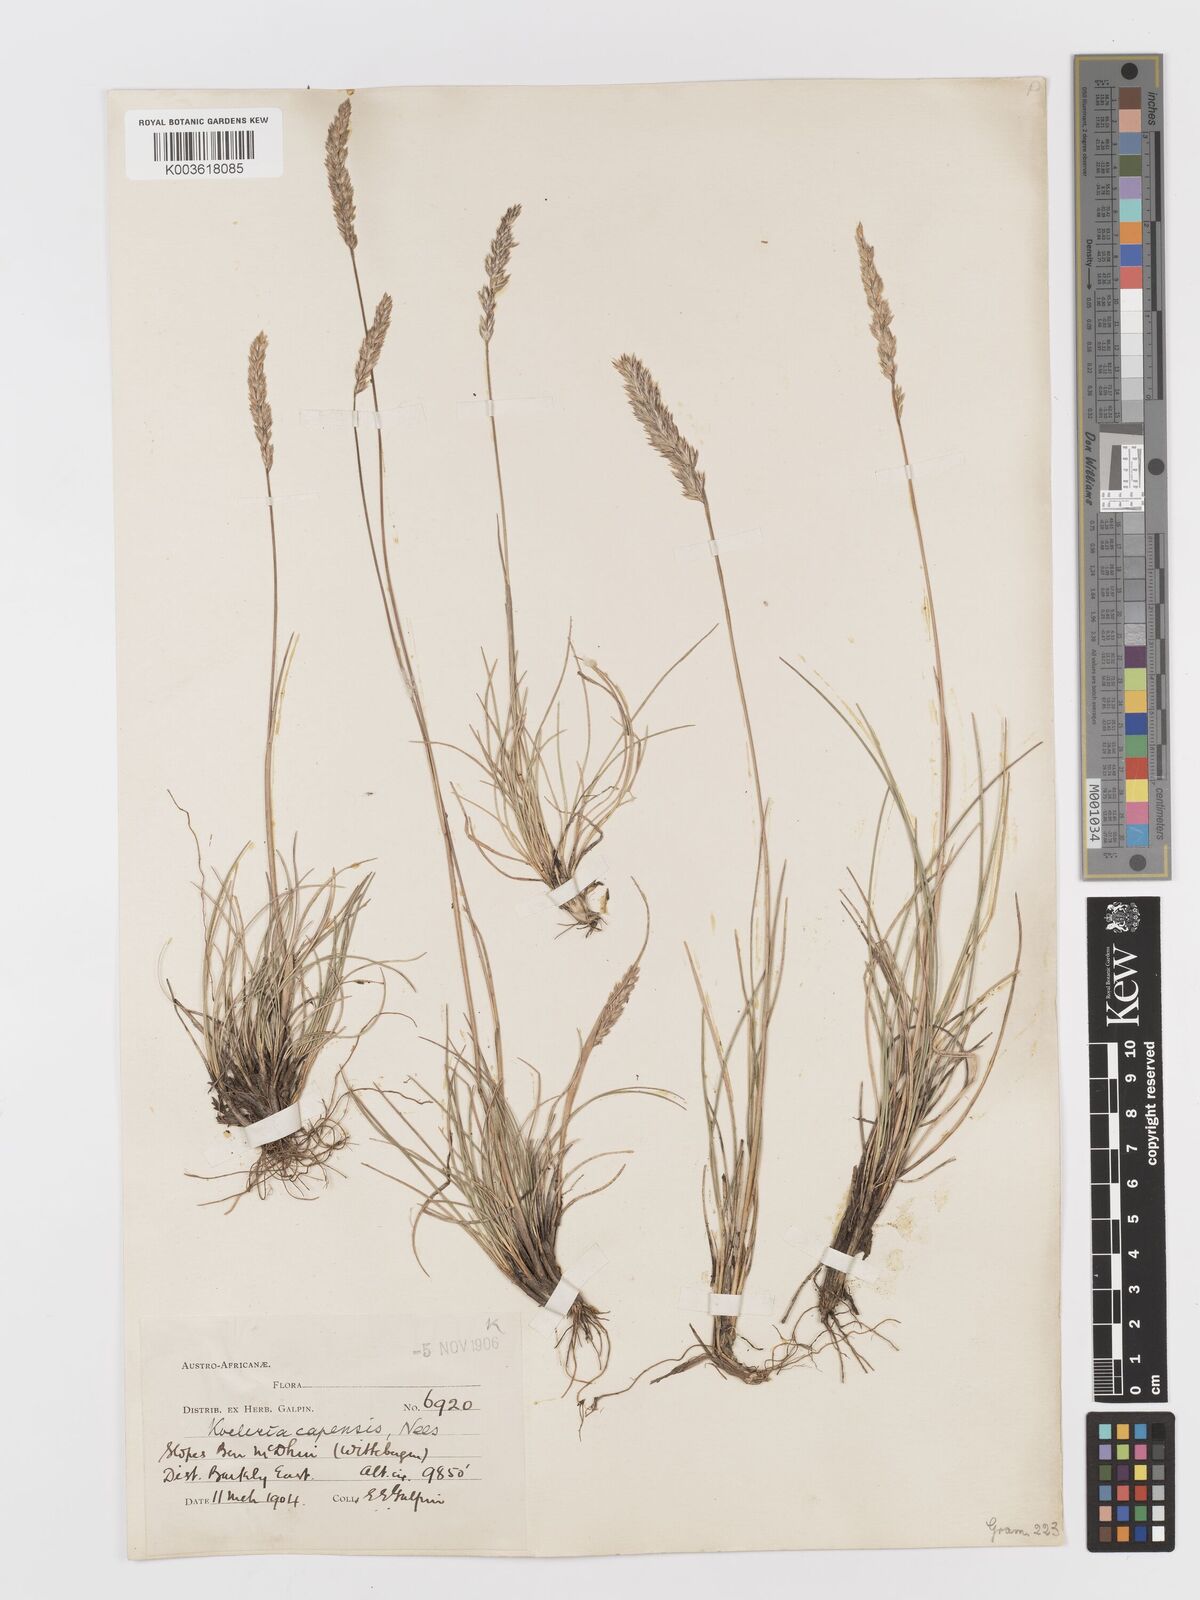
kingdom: Plantae
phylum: Tracheophyta
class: Liliopsida
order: Poales
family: Poaceae
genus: Koeleria
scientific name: Koeleria capensis
